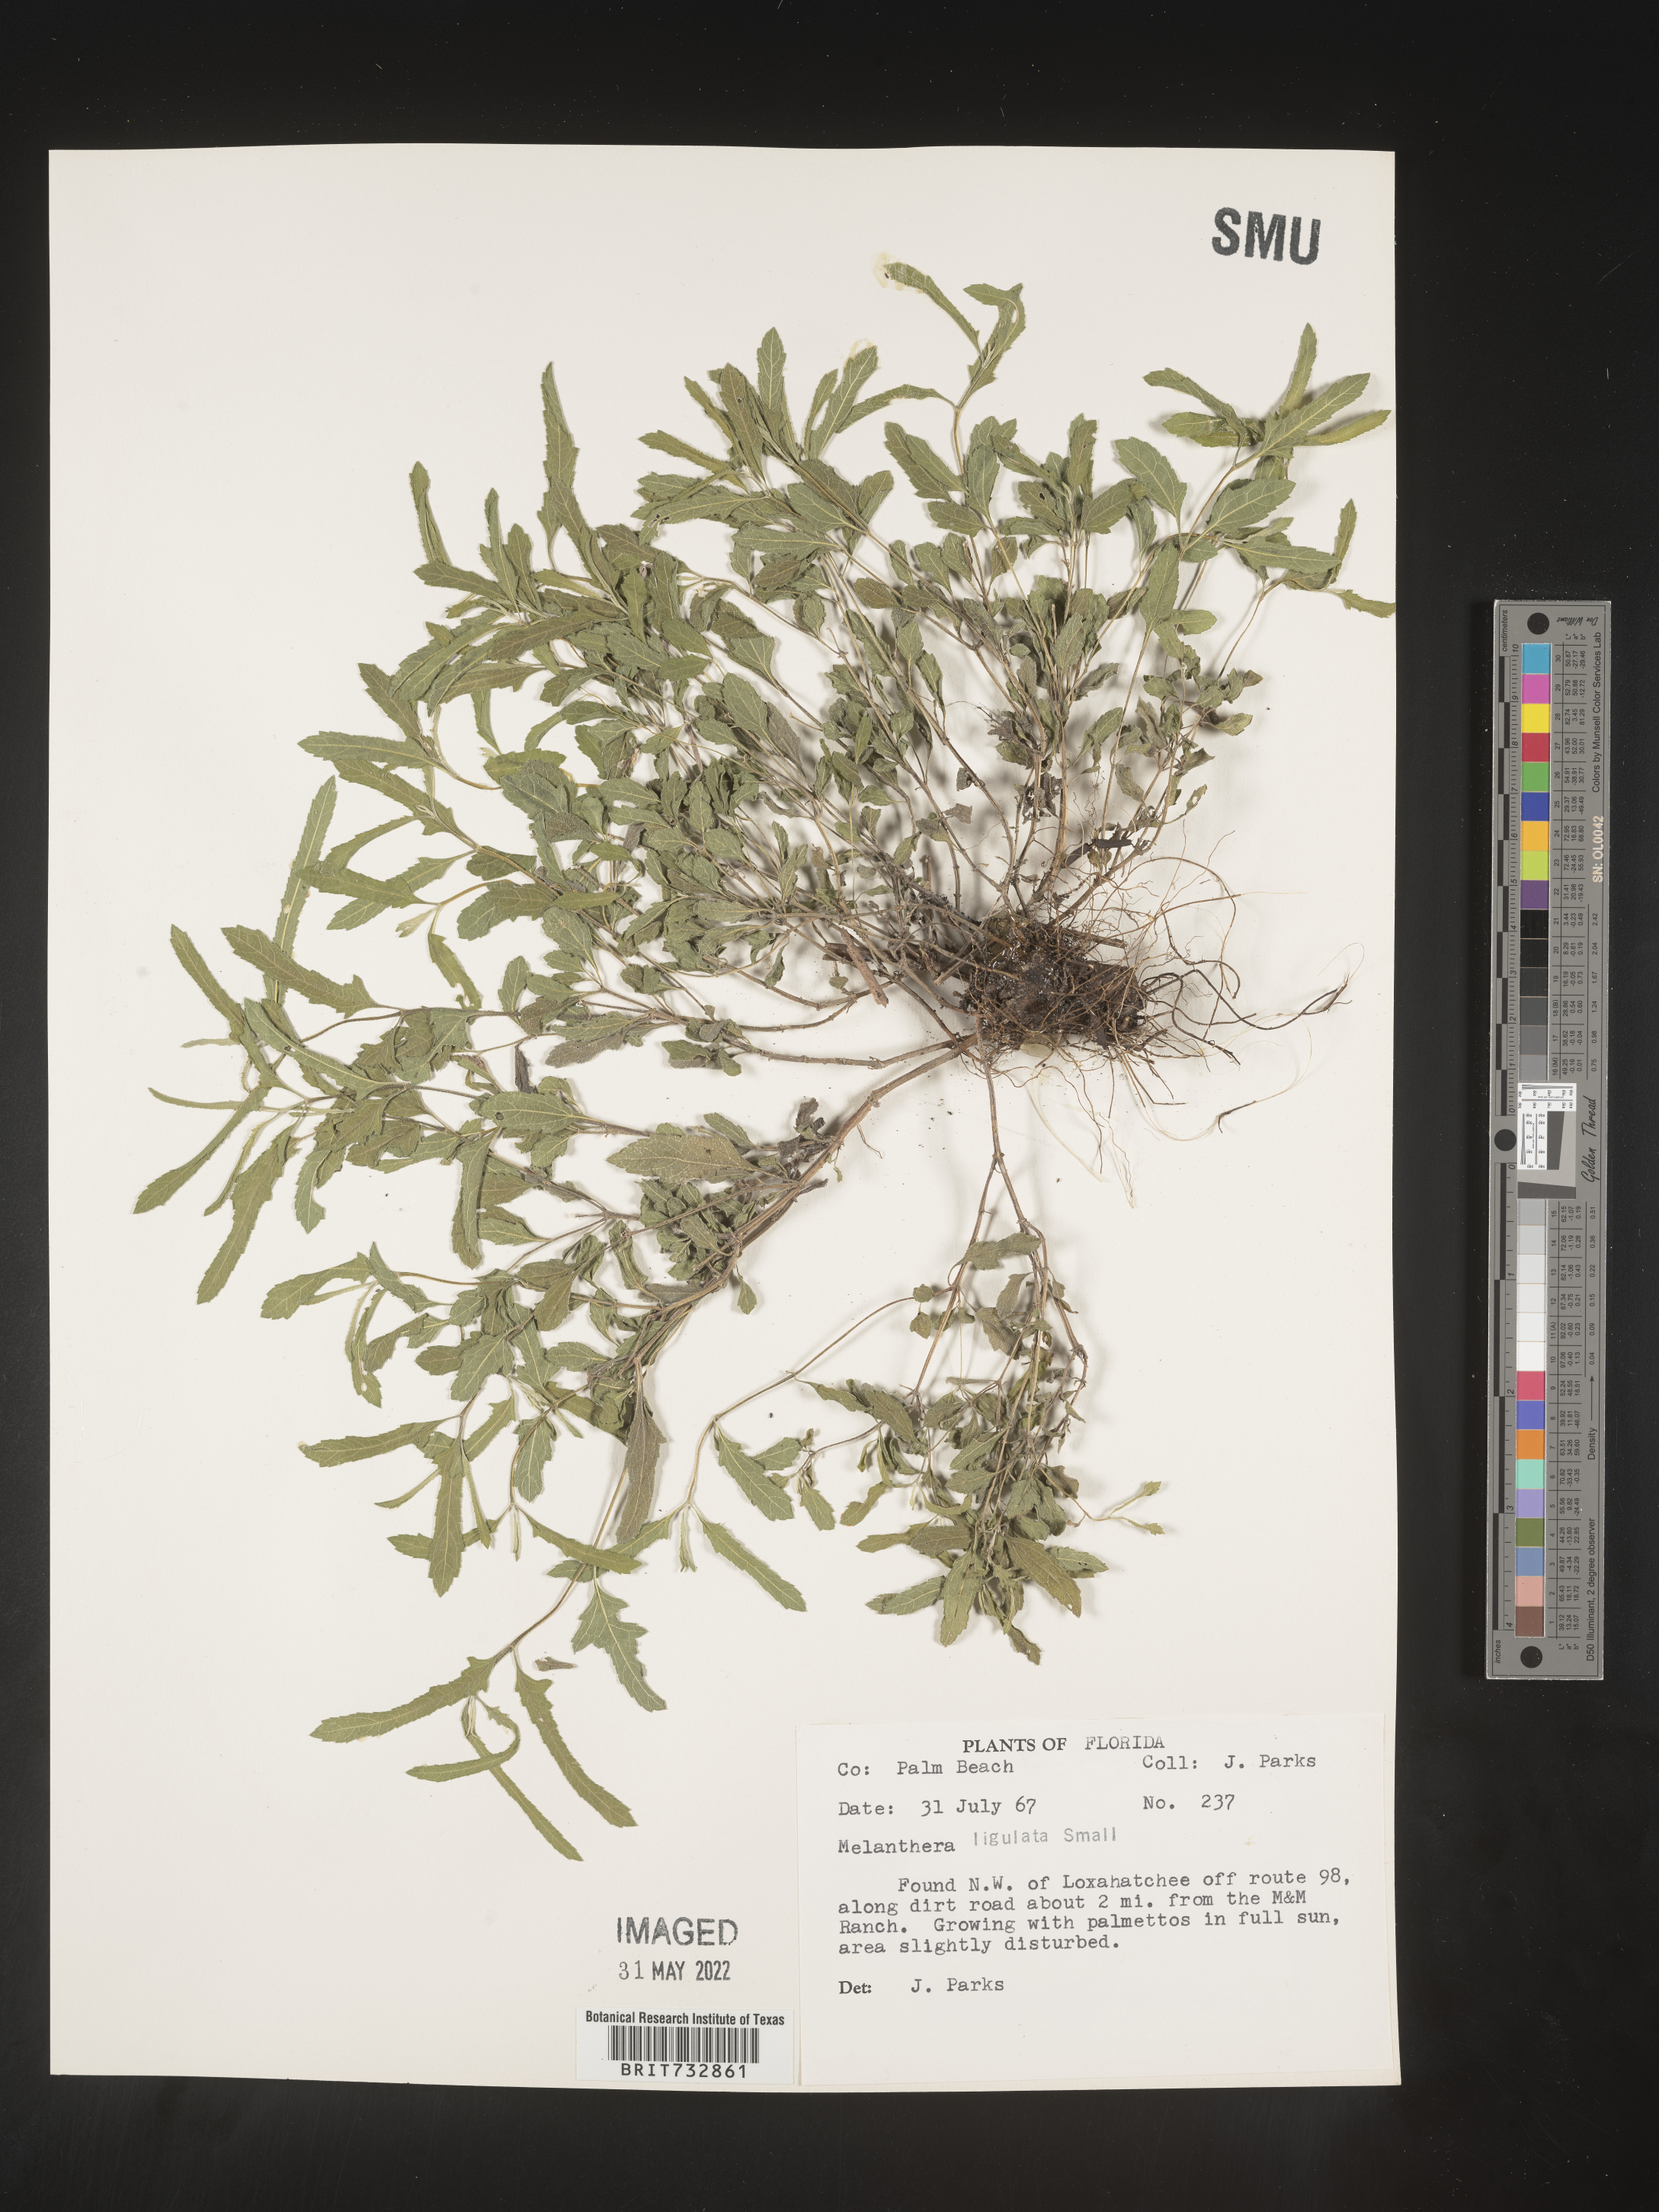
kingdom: Plantae
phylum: Tracheophyta
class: Magnoliopsida
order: Asterales
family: Asteraceae
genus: Melanthera
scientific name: Melanthera nivea
